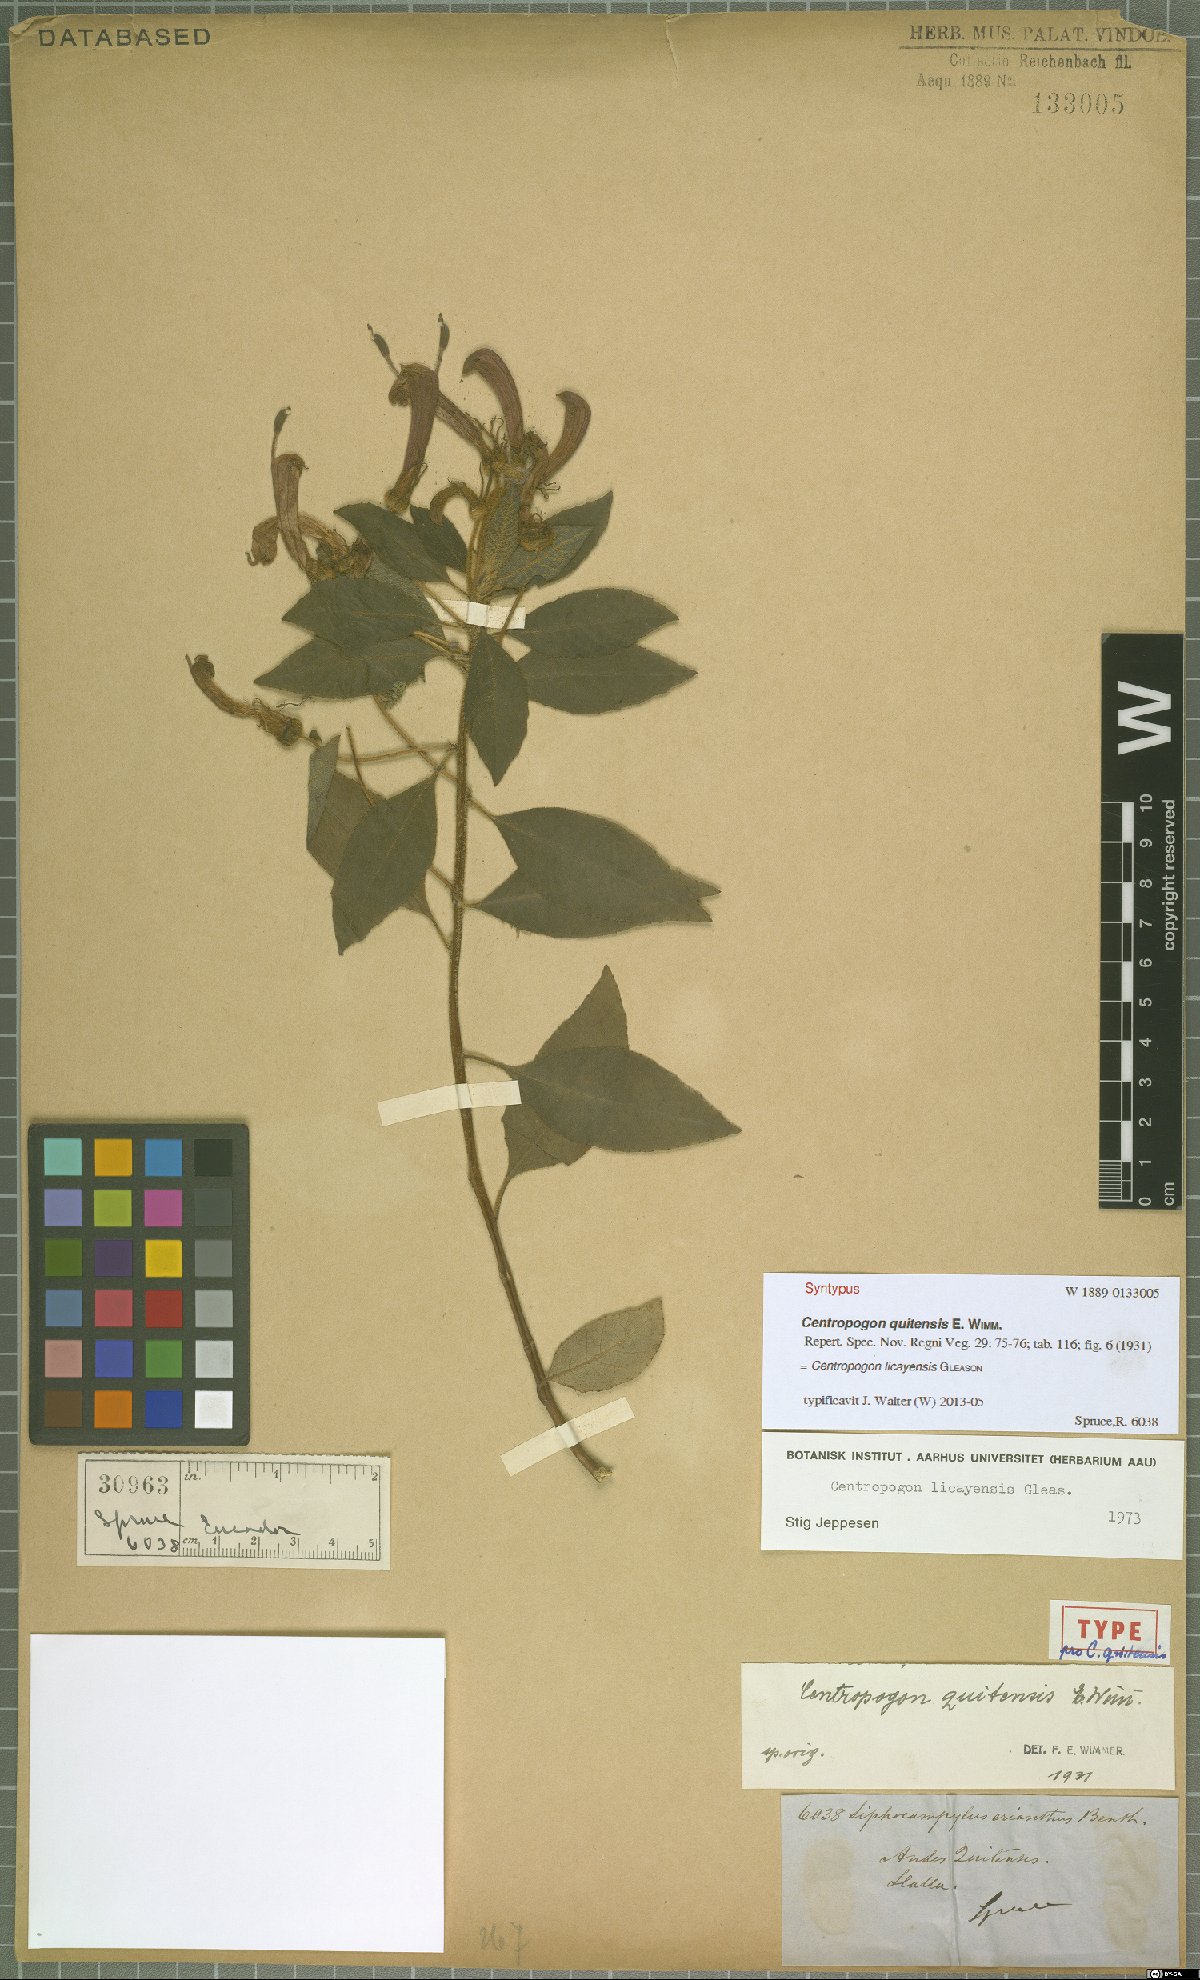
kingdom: Plantae
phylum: Tracheophyta
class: Magnoliopsida
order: Asterales
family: Campanulaceae
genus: Centropogon
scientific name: Centropogon licayensis
